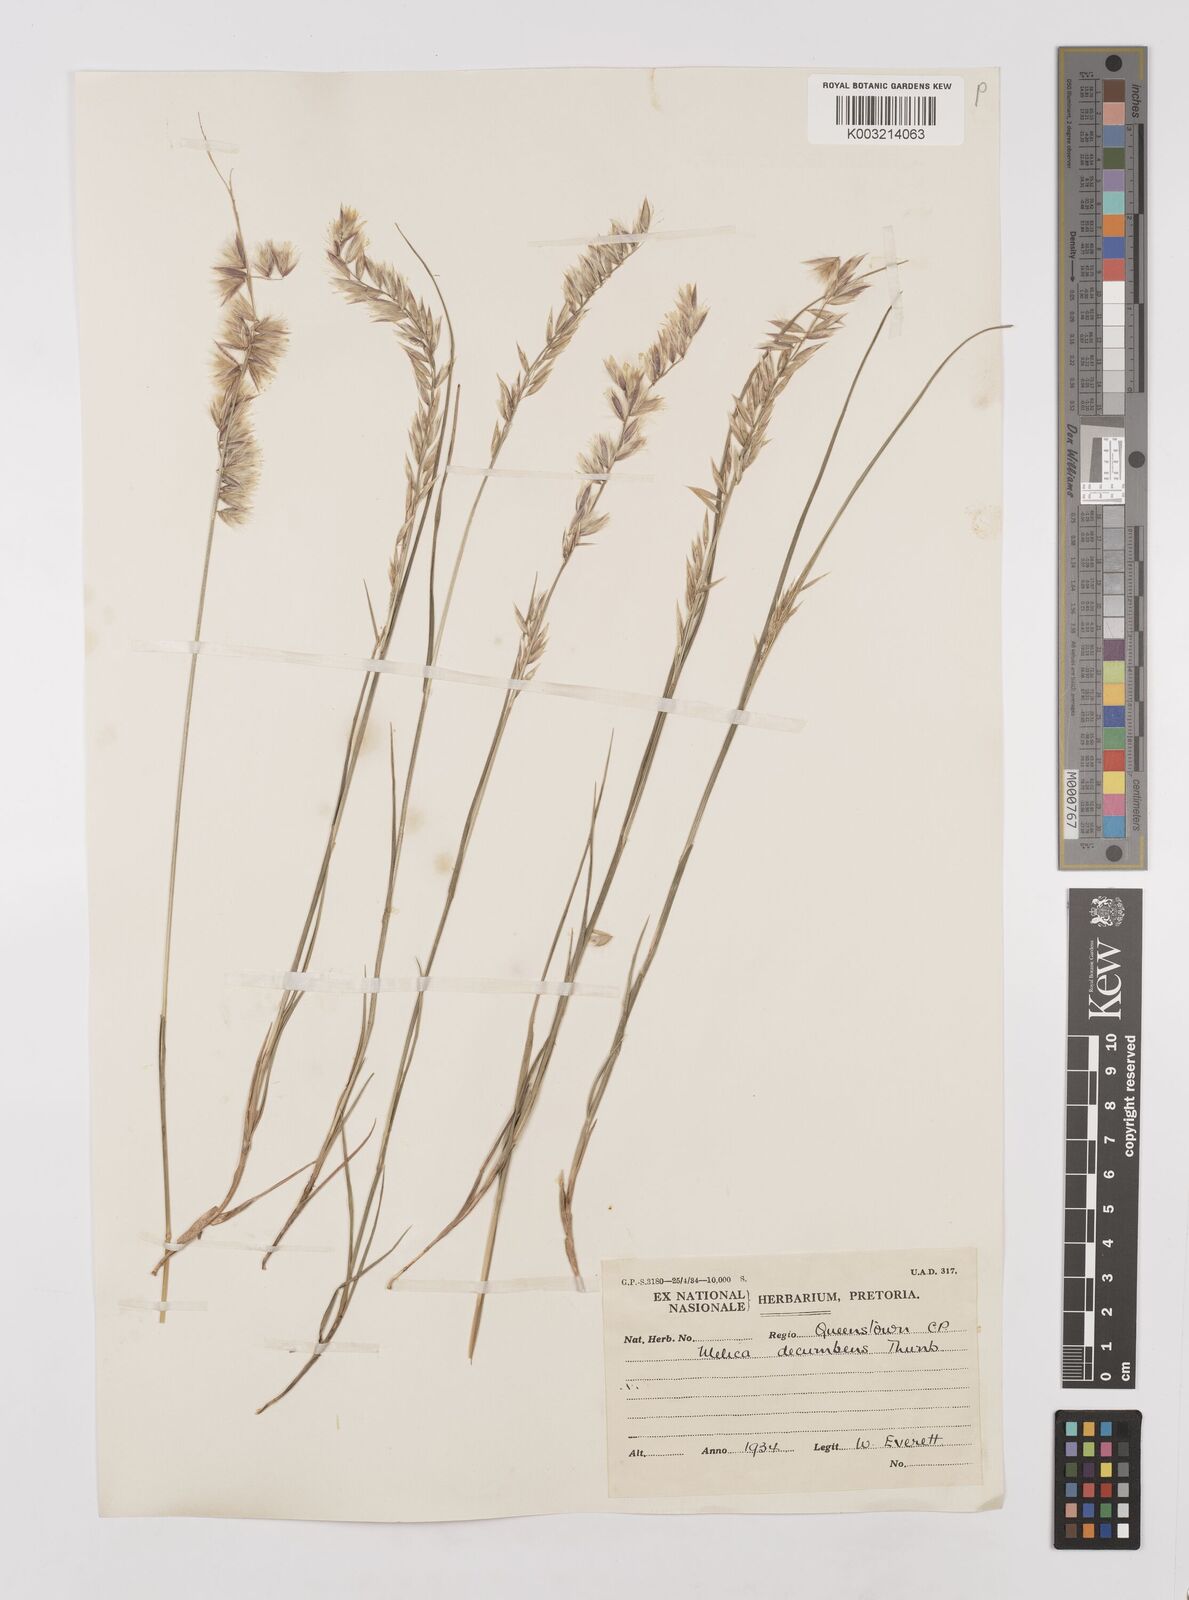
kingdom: Plantae
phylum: Tracheophyta
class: Liliopsida
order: Poales
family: Poaceae
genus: Melica
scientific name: Melica dendroides
